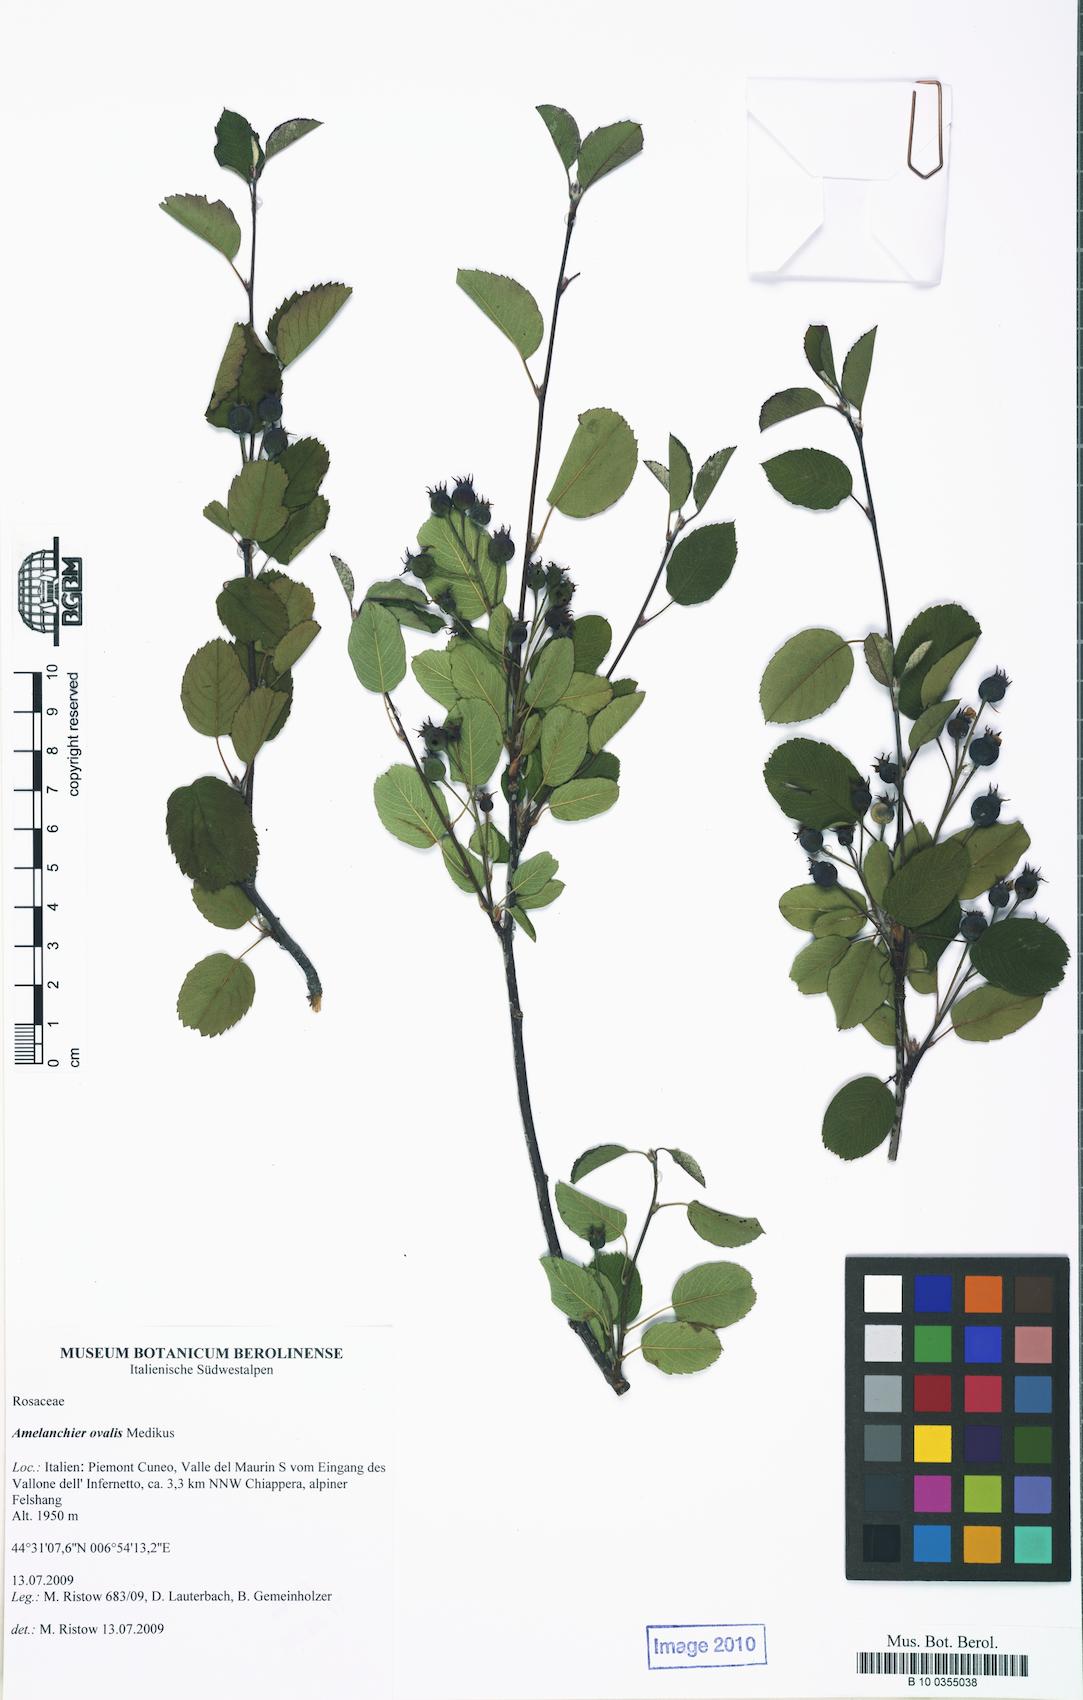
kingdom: Plantae
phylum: Tracheophyta
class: Magnoliopsida
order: Rosales
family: Rosaceae
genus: Amelanchier
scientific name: Amelanchier ovalis
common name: Serviceberry
